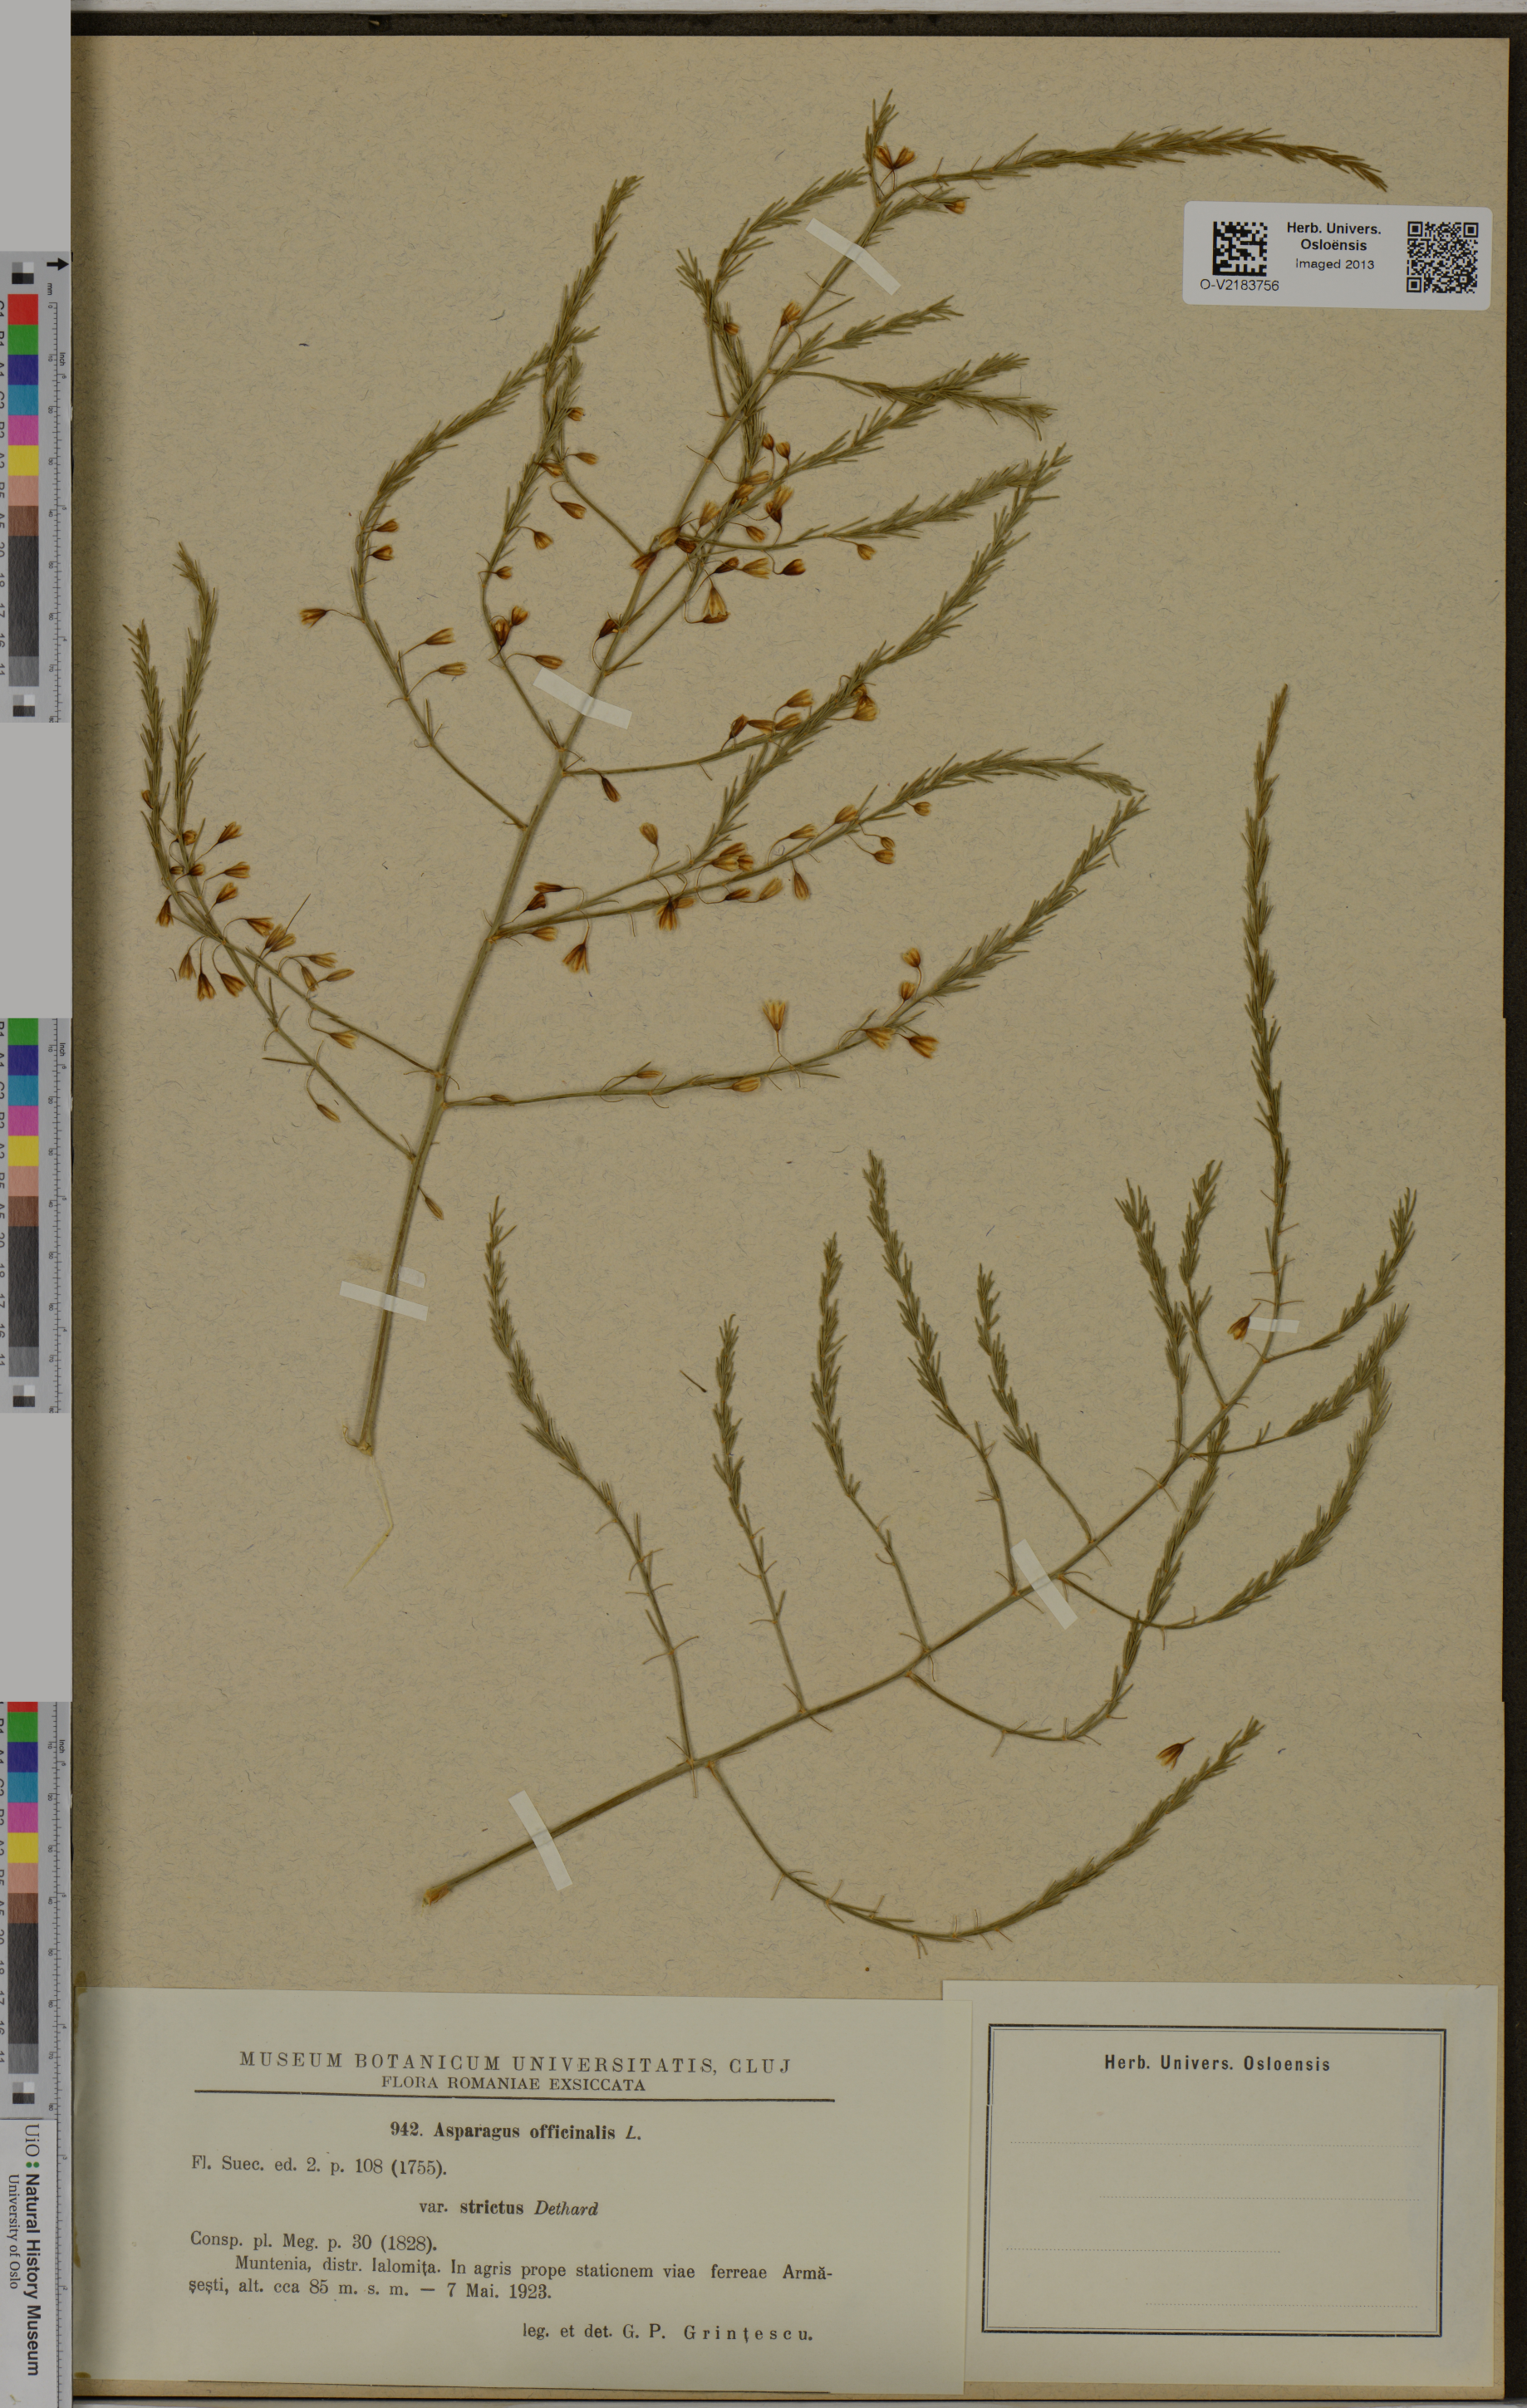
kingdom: Plantae
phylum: Tracheophyta
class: Liliopsida
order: Asparagales
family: Asparagaceae
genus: Asparagus
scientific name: Asparagus officinalis
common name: Garden asparagus
